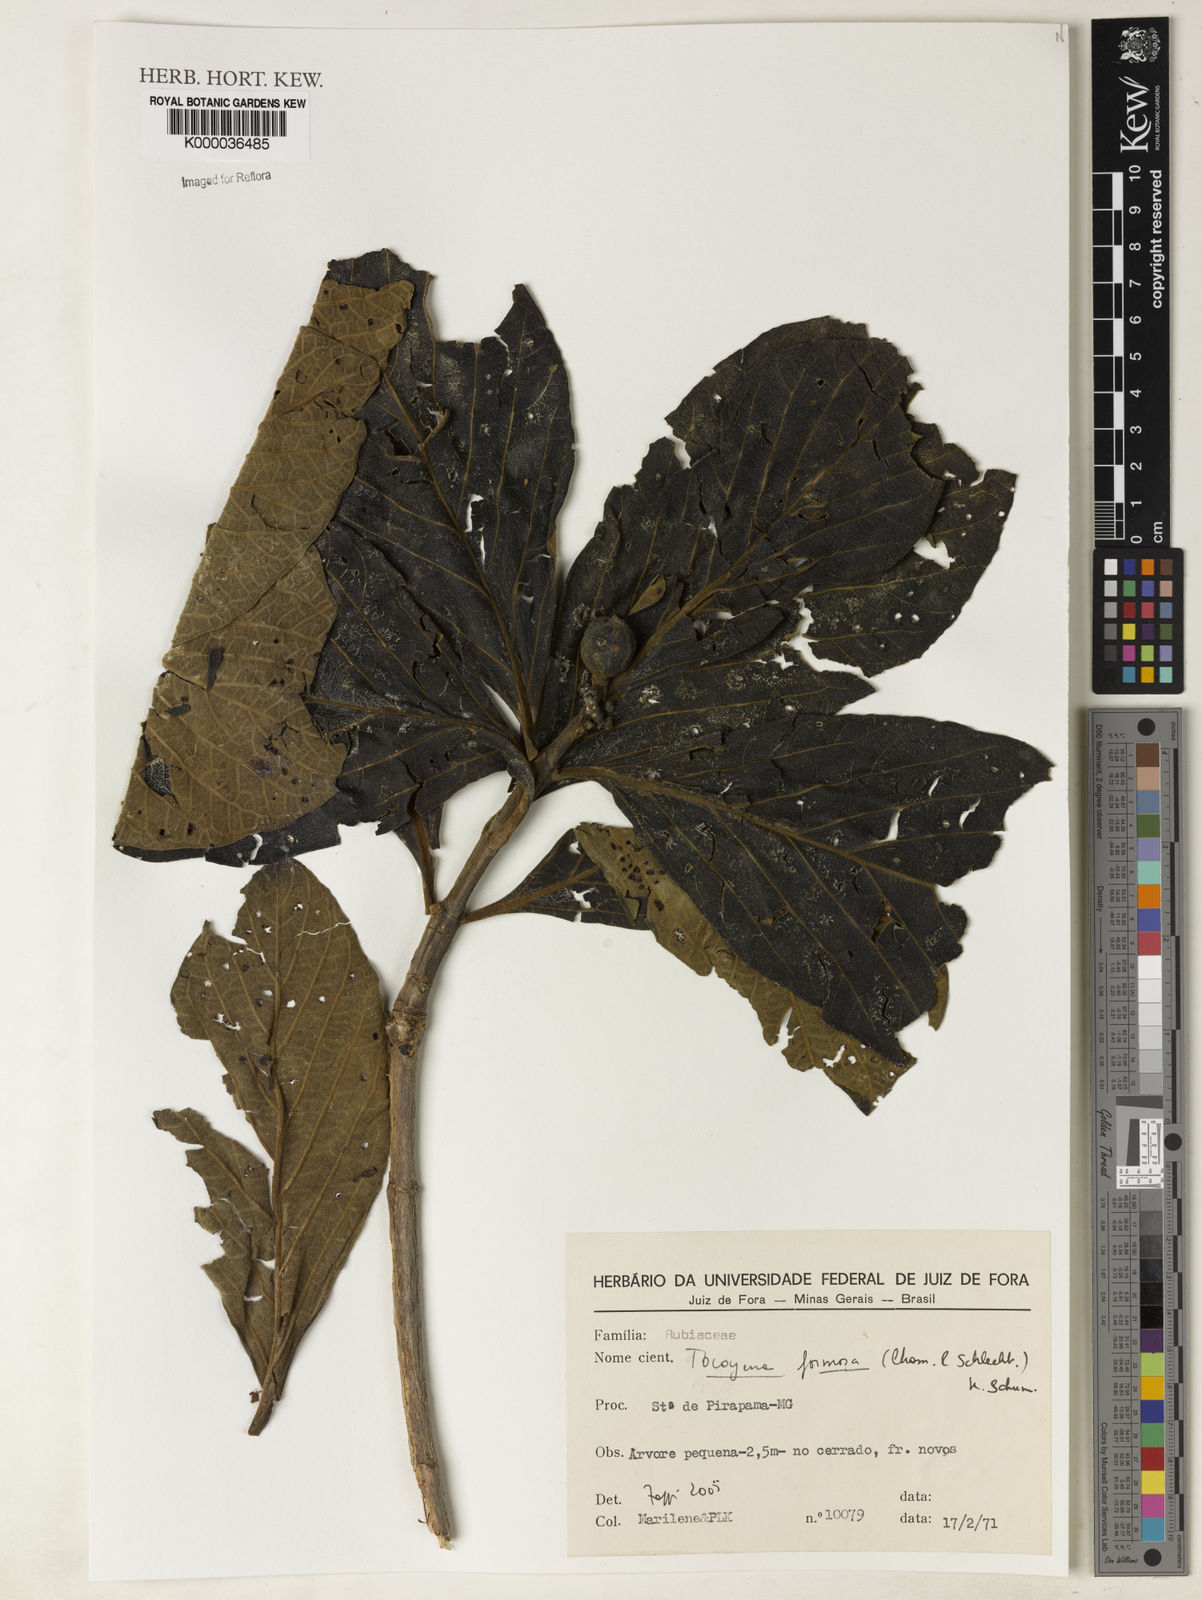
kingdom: Plantae
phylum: Tracheophyta
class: Magnoliopsida
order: Gentianales
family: Rubiaceae
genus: Tocoyena
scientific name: Tocoyena formosa
